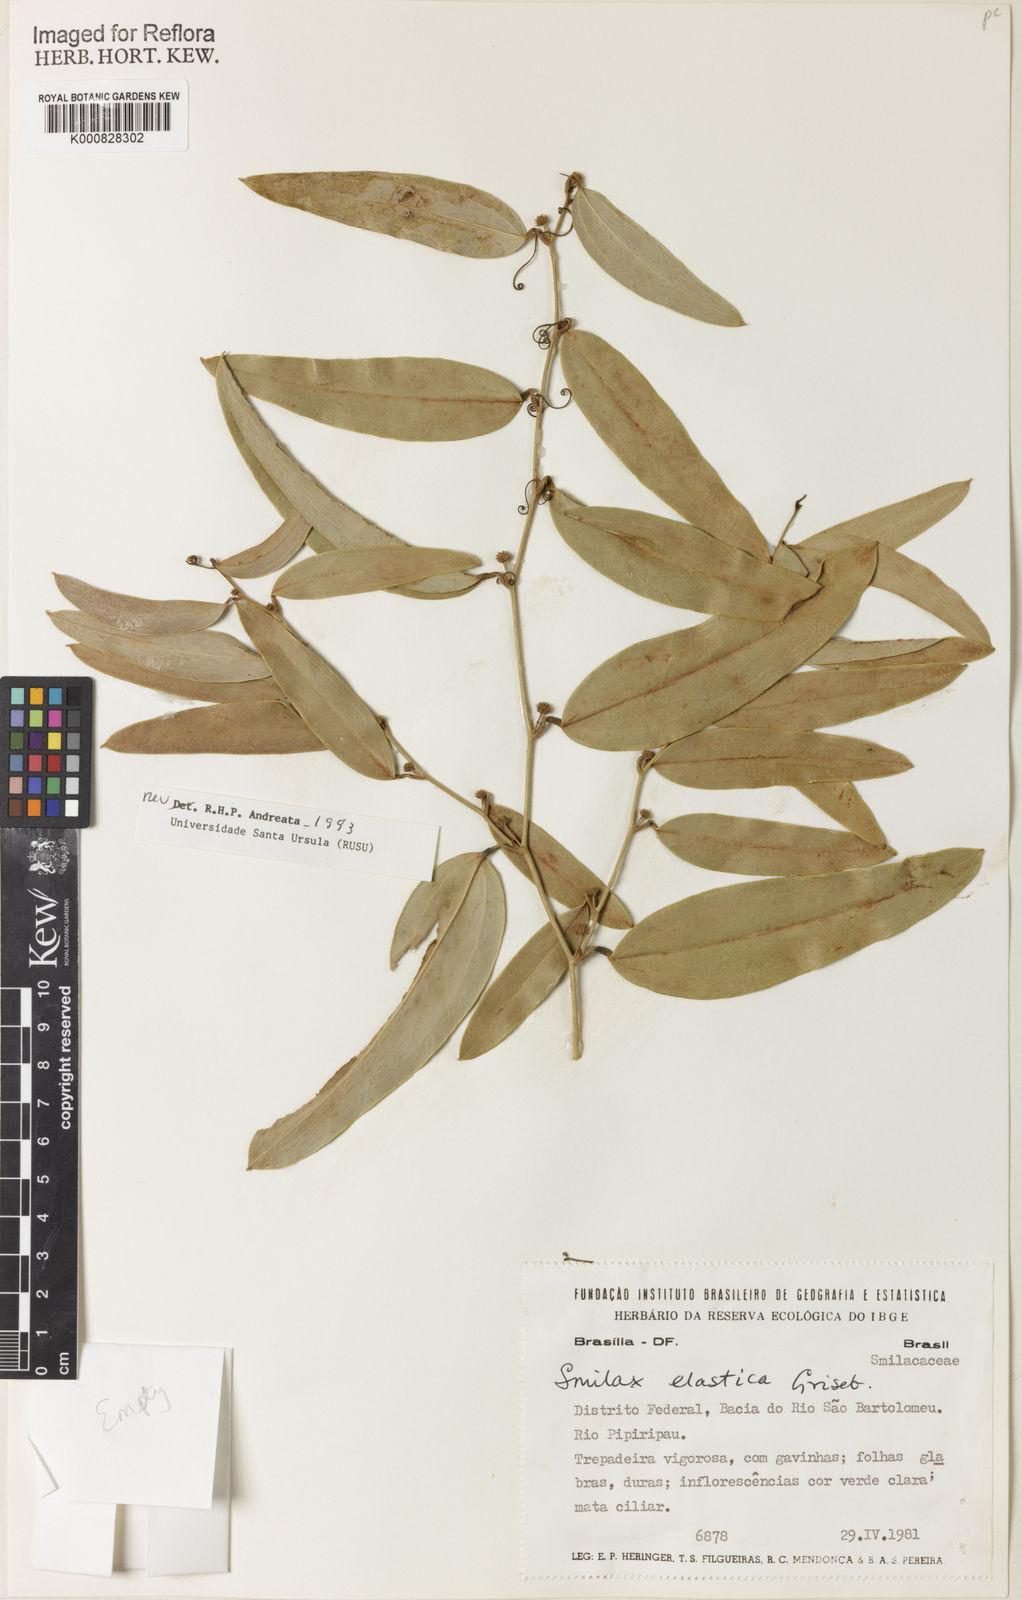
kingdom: Plantae
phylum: Tracheophyta
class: Liliopsida
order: Liliales
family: Smilacaceae
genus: Smilax
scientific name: Smilax elastica
